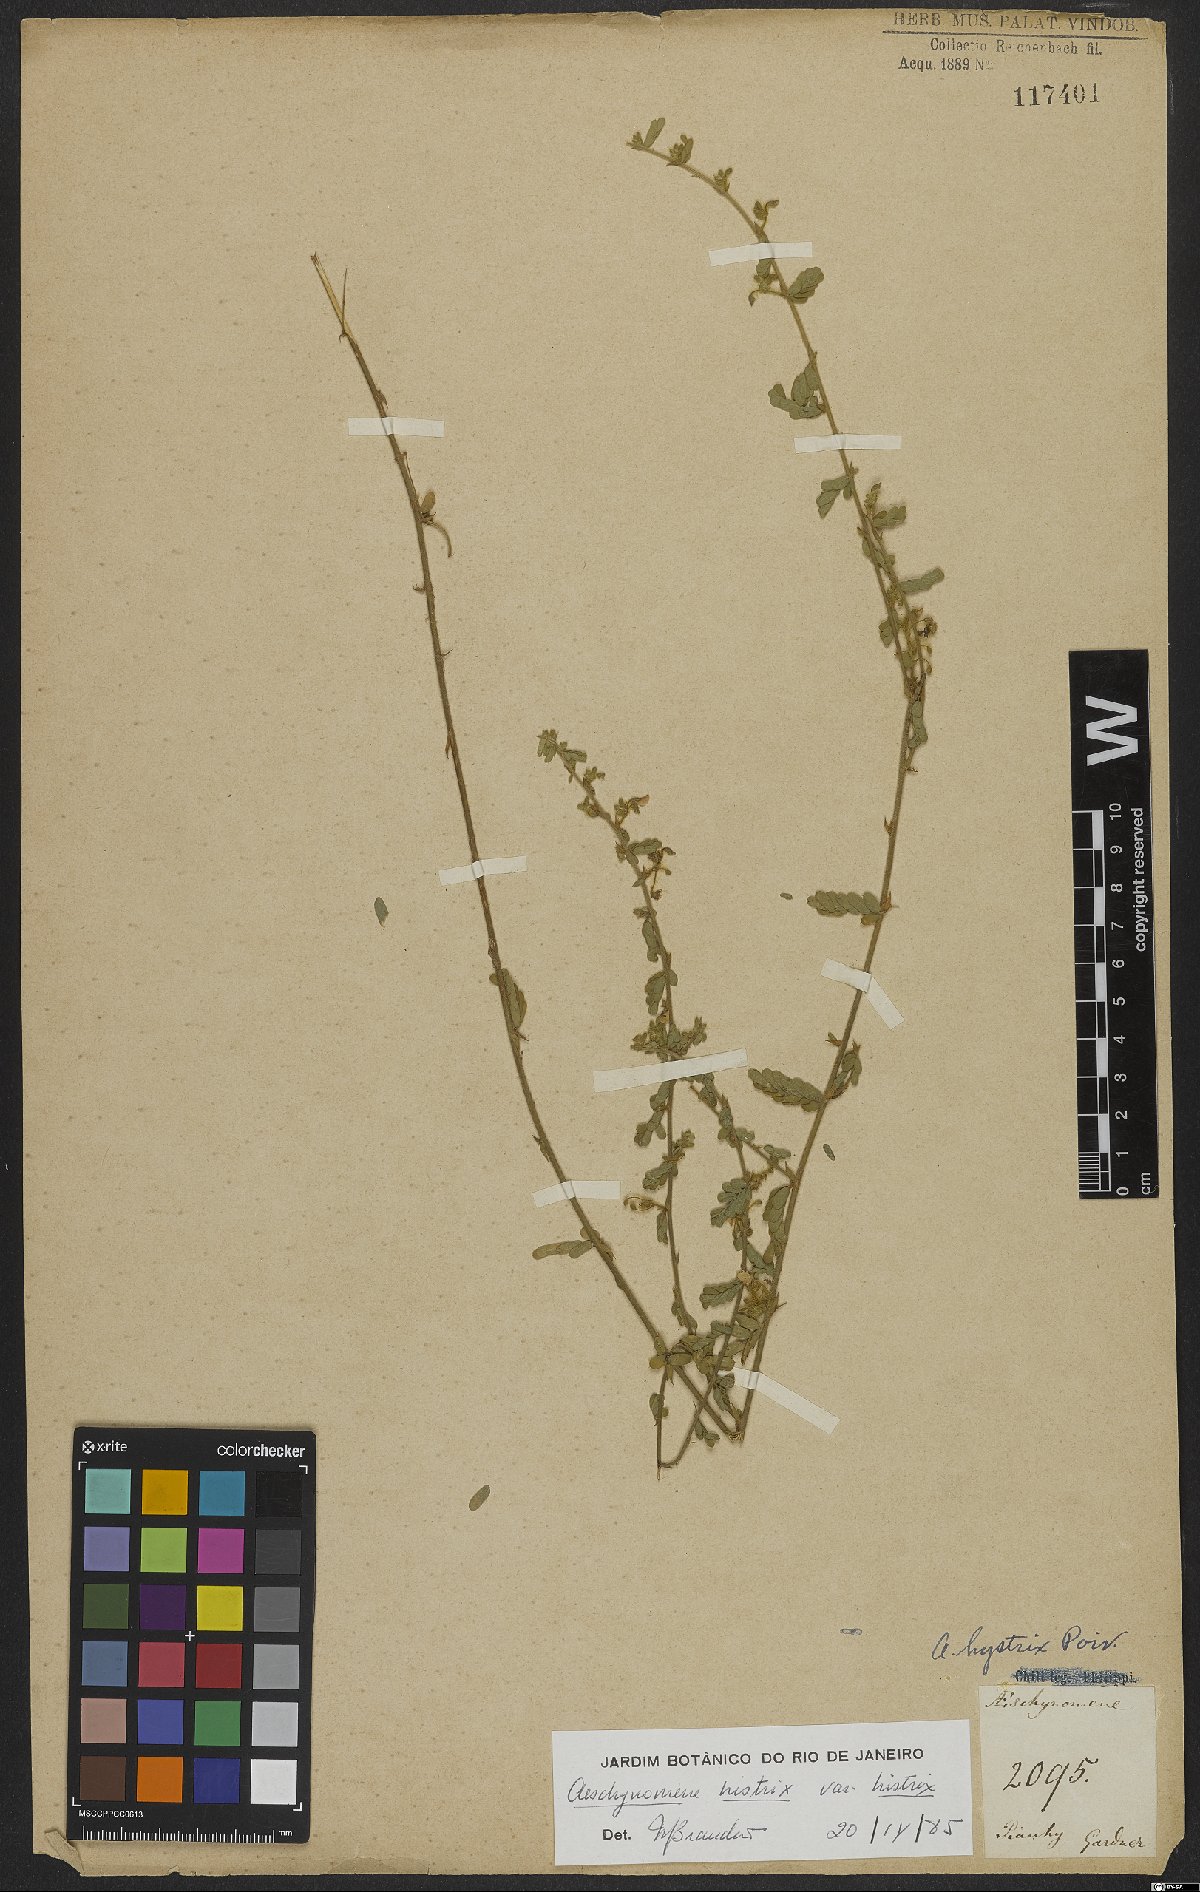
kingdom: Plantae
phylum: Tracheophyta
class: Magnoliopsida
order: Fabales
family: Fabaceae
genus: Ctenodon
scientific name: Ctenodon histrix
